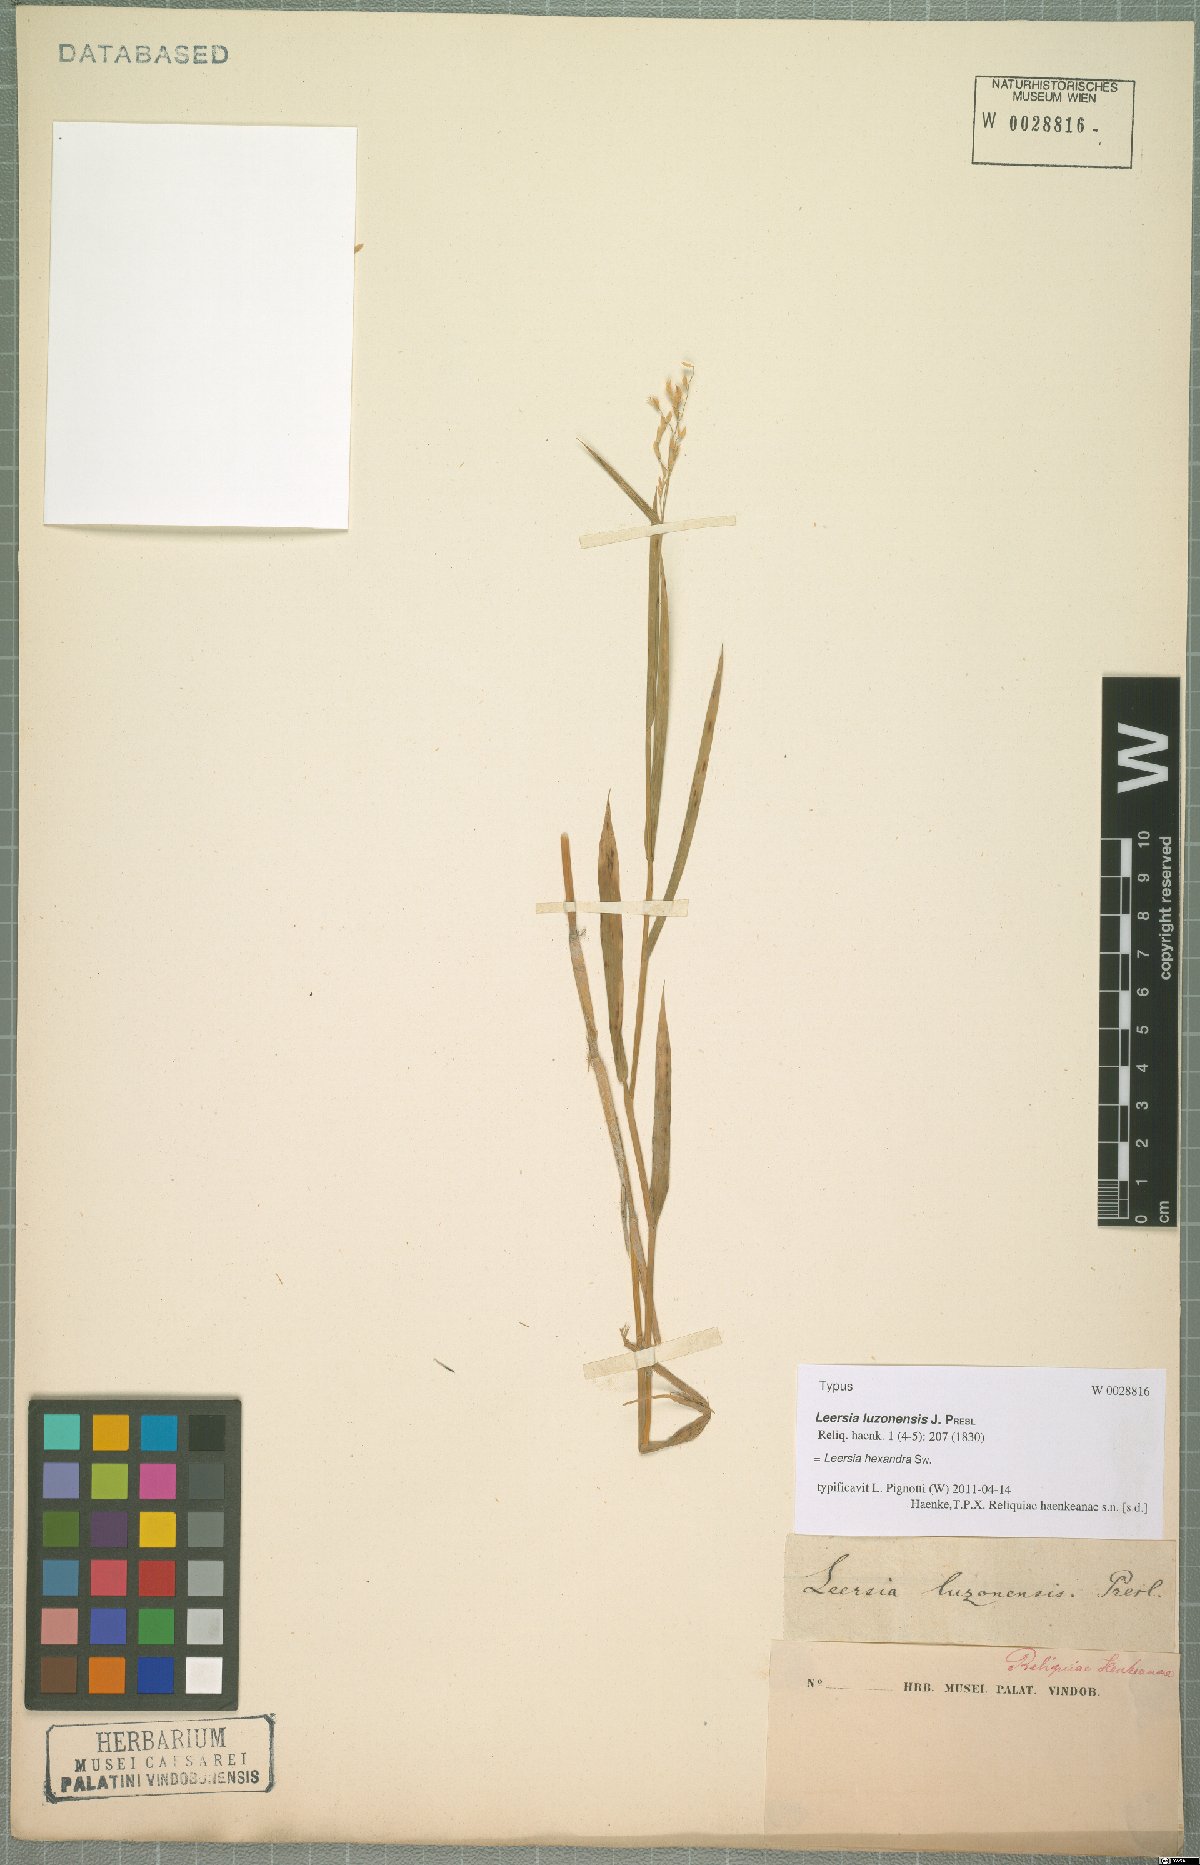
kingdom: Plantae
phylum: Tracheophyta
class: Liliopsida
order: Poales
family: Poaceae
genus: Leersia
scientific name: Leersia hexandra
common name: Southern cut grass
